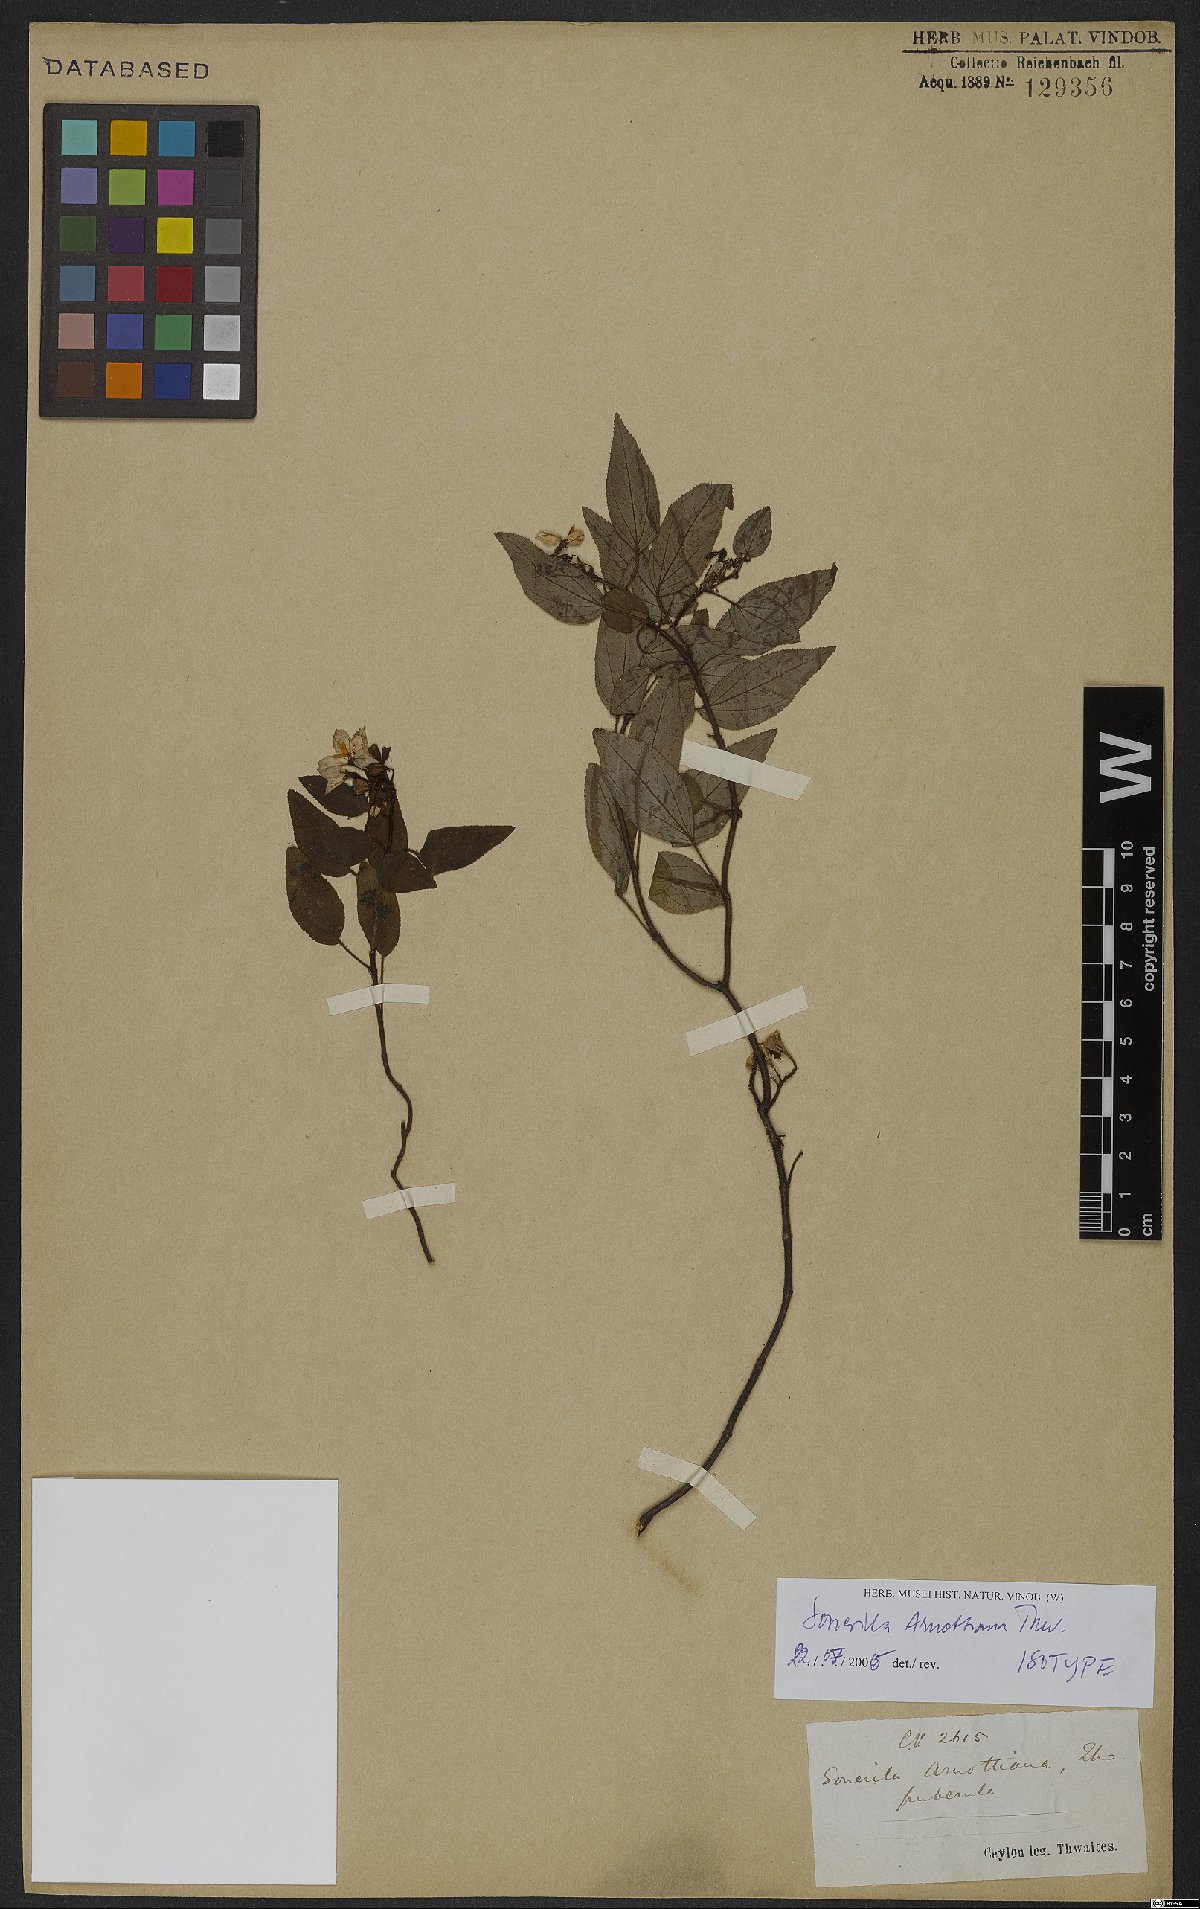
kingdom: Plantae
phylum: Tracheophyta
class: Magnoliopsida
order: Myrtales
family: Melastomataceae
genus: Sonerila
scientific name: Sonerila arnottiana
